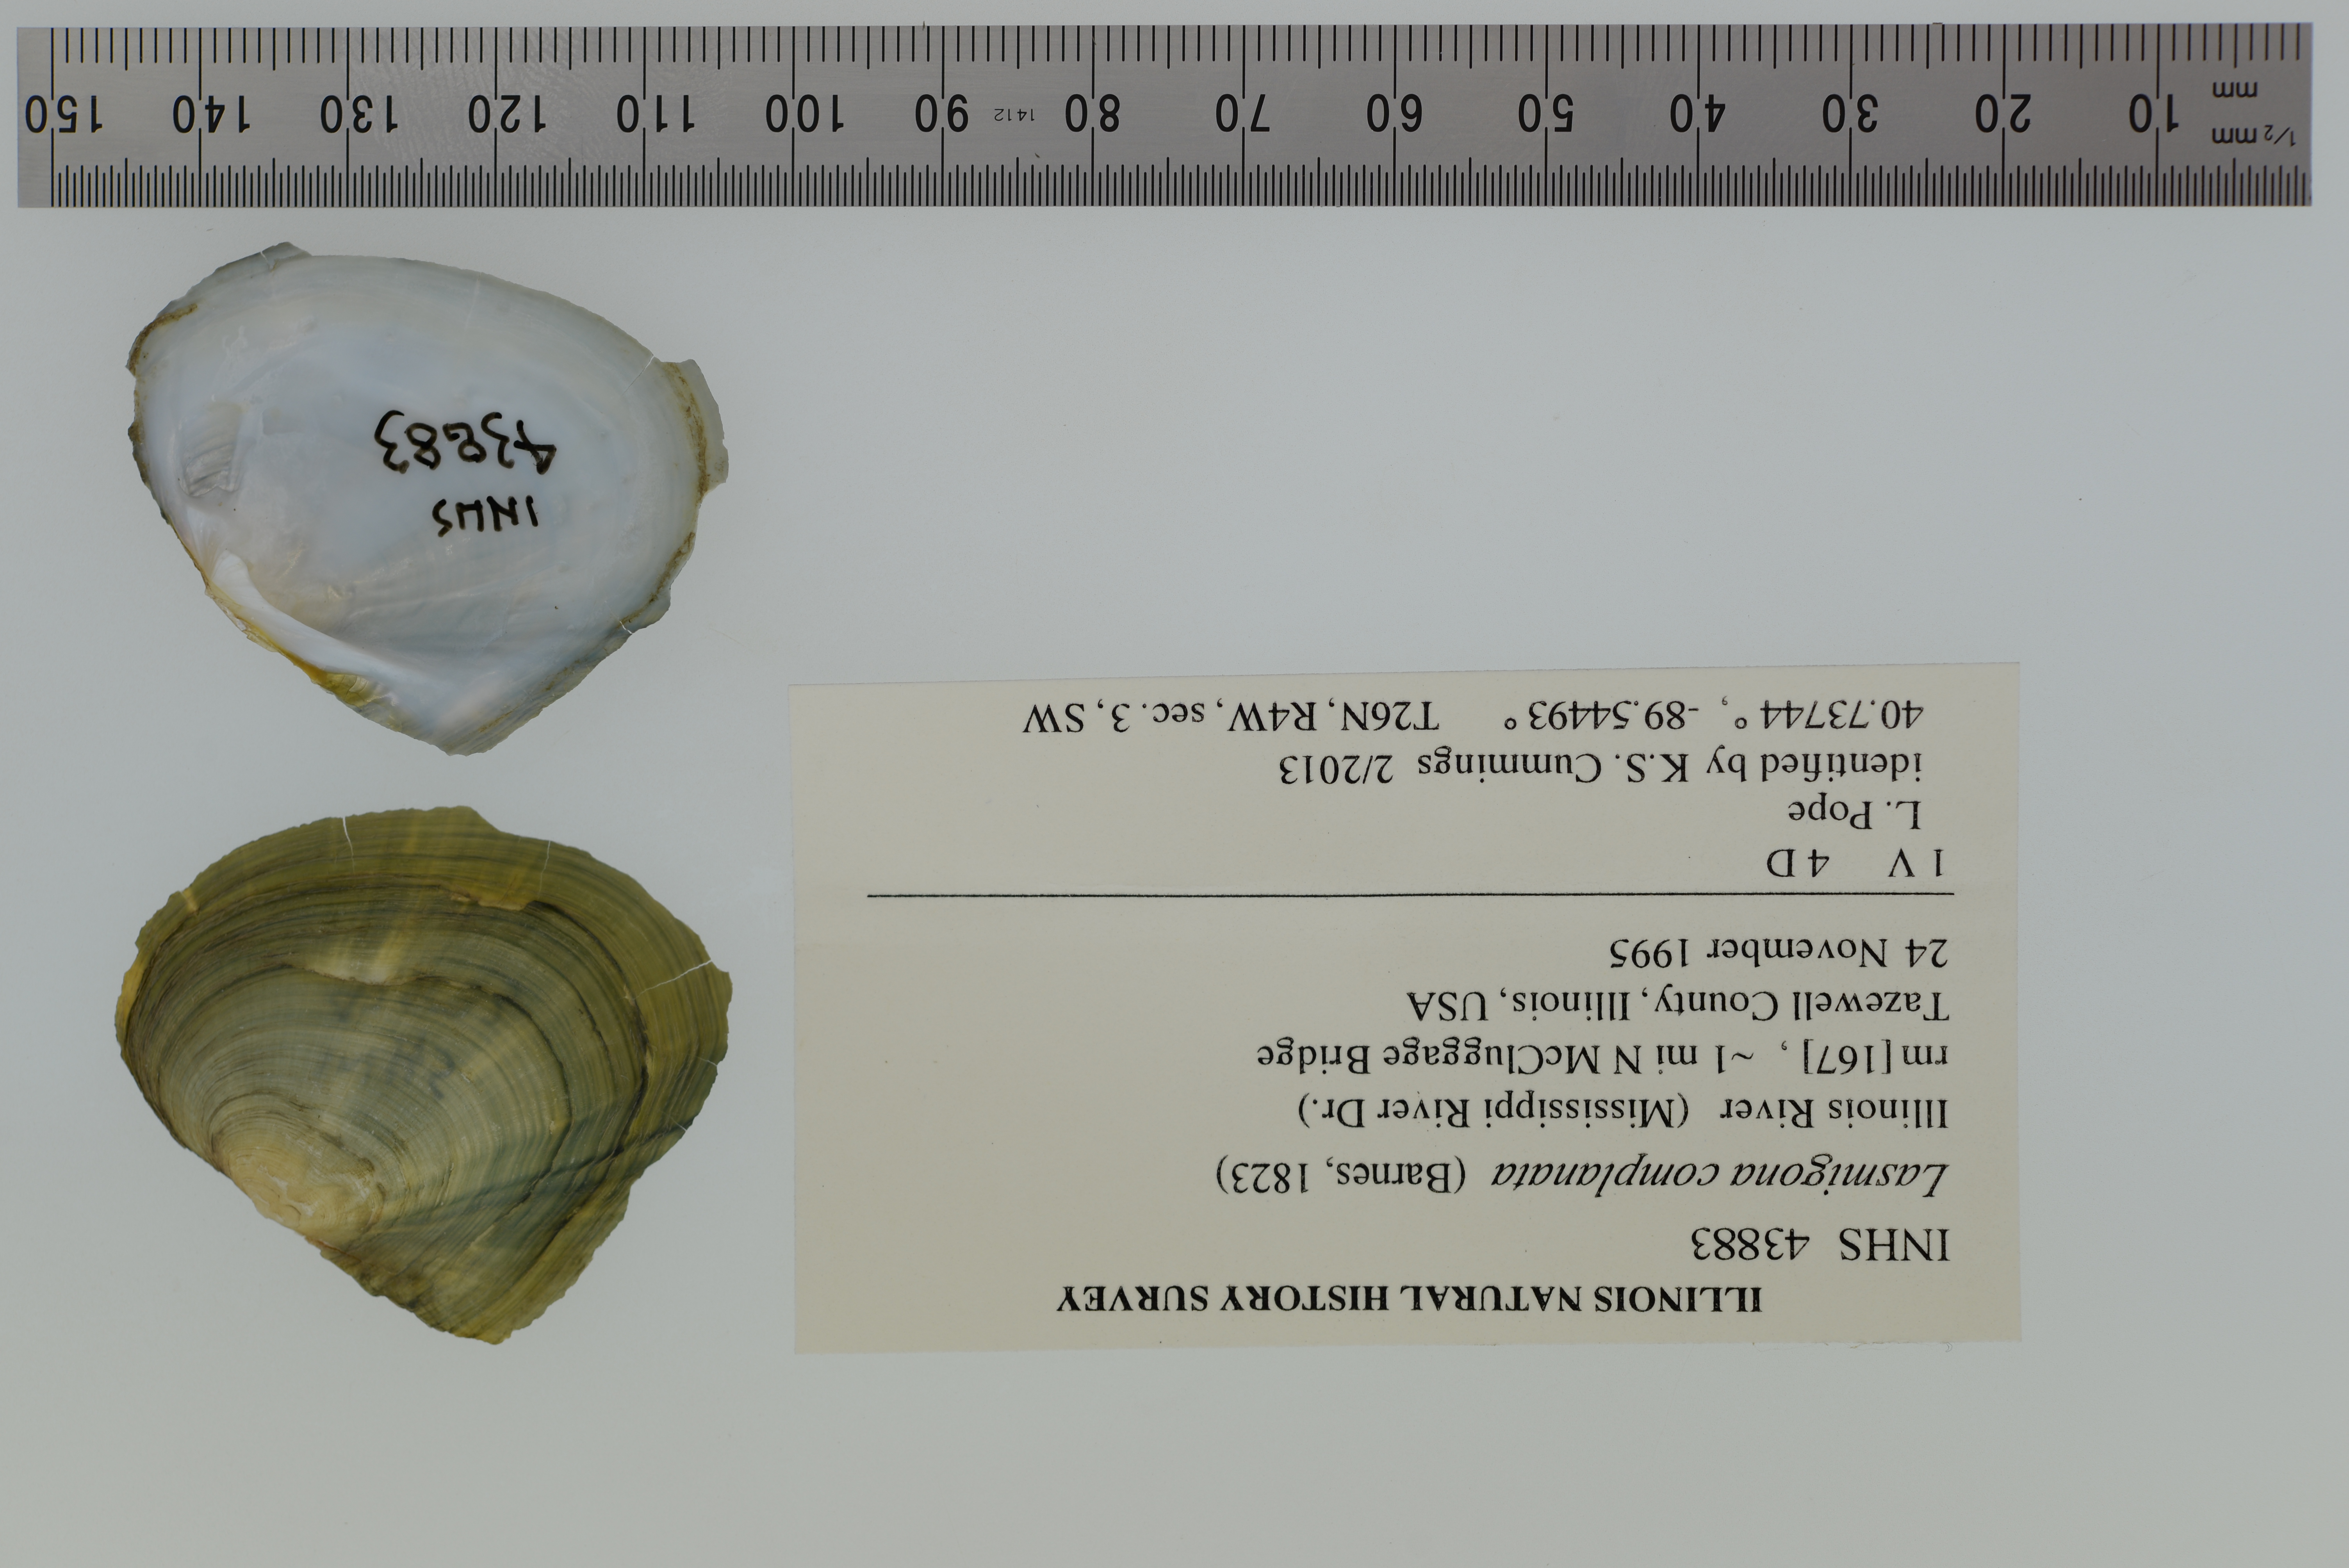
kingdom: Animalia
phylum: Mollusca
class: Bivalvia
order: Unionida
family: Unionidae
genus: Lasmigona
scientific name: Lasmigona complanata
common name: White heelsplitter
